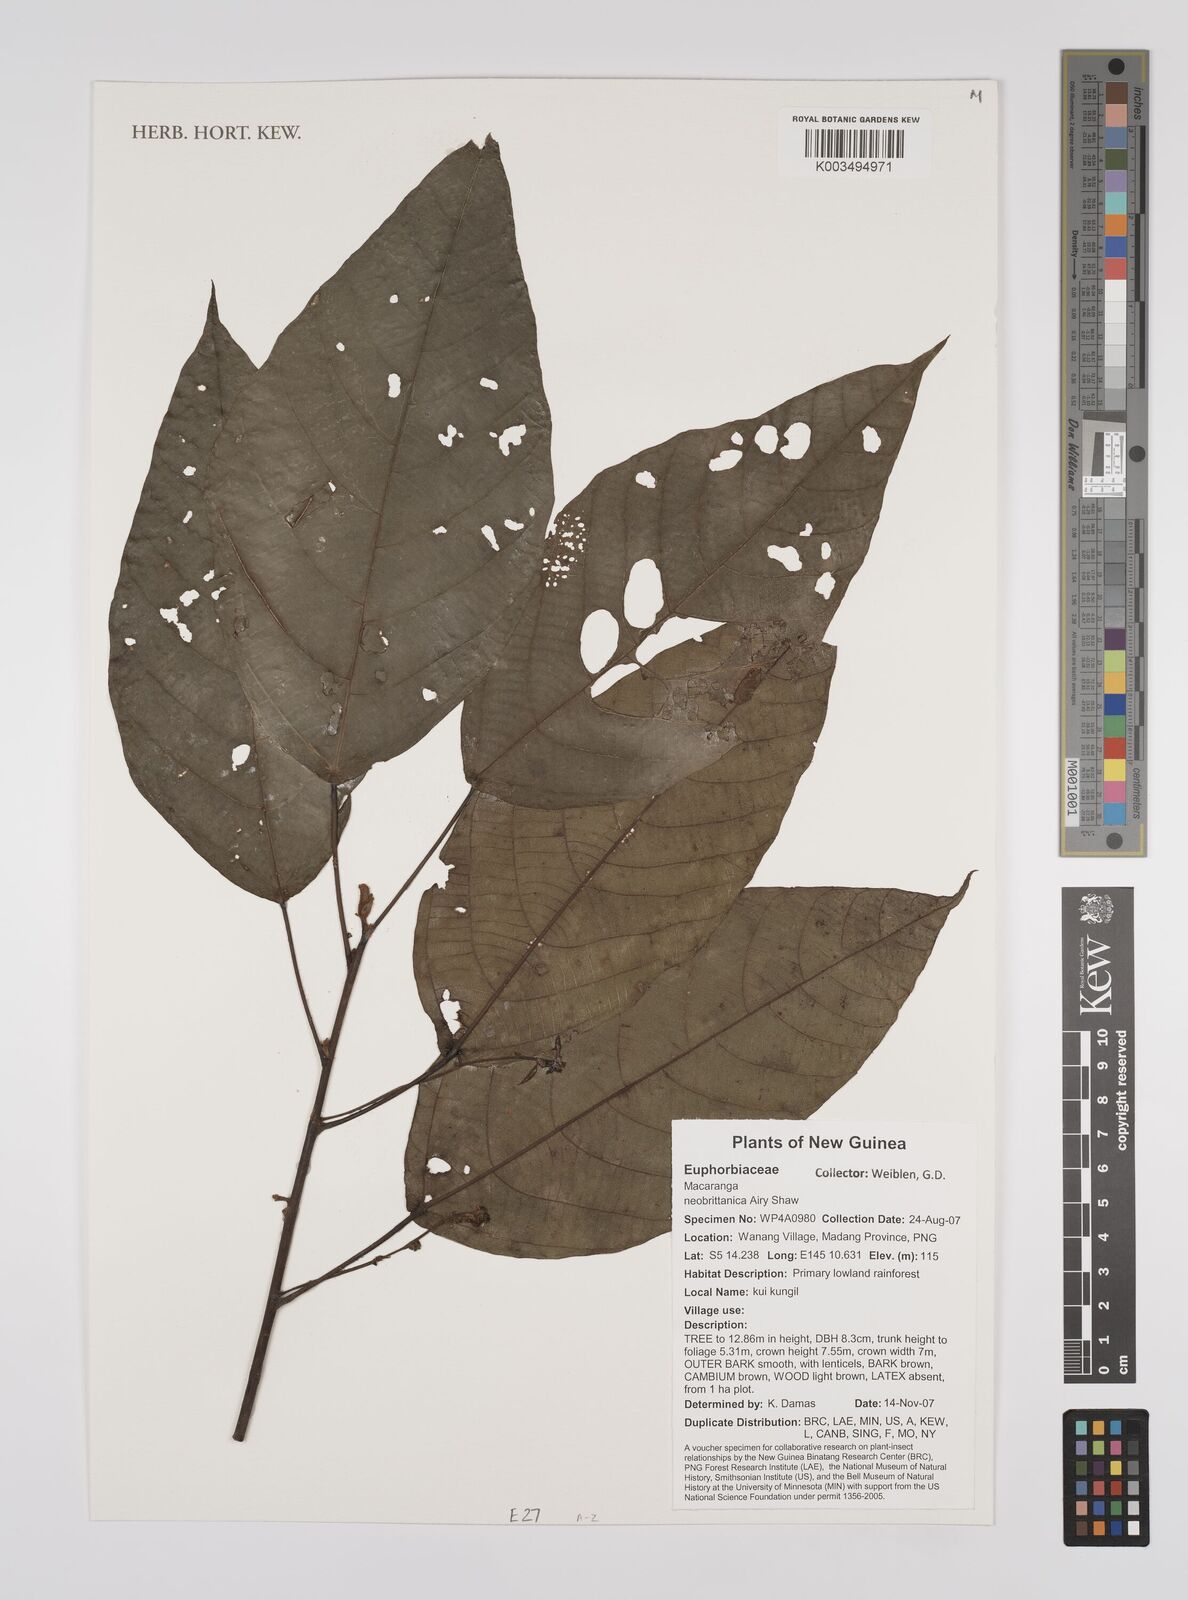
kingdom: Plantae
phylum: Tracheophyta
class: Magnoliopsida
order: Malpighiales
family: Euphorbiaceae
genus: Macaranga
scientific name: Macaranga neobritannica
